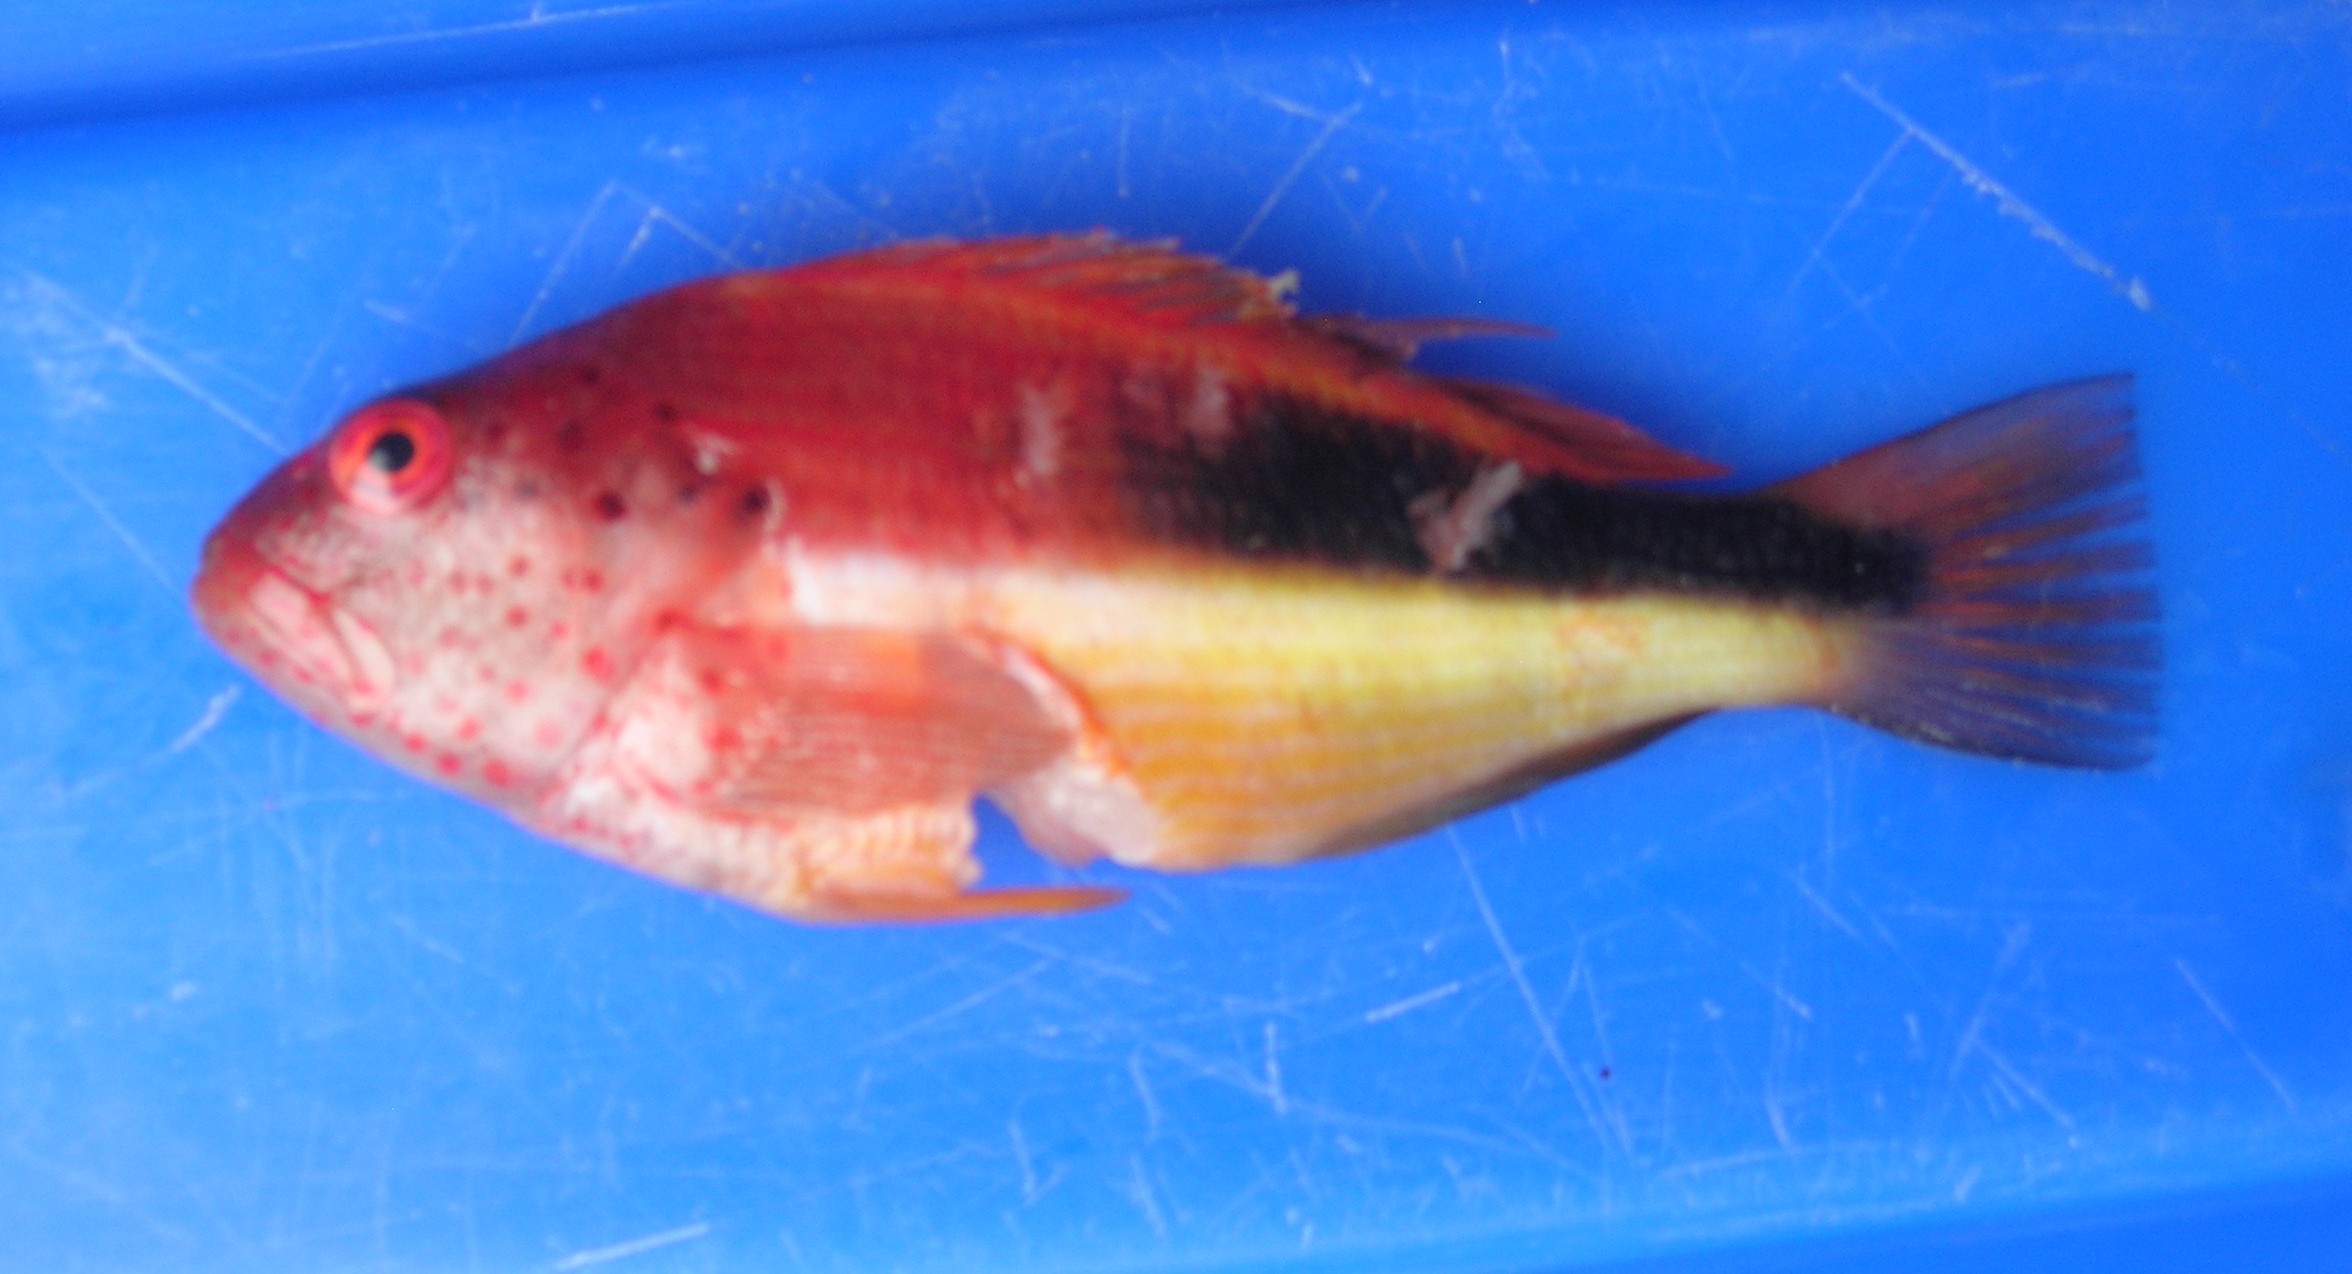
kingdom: Animalia
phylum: Chordata
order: Perciformes
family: Cirrhitidae
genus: Paracirrhites
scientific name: Paracirrhites forsteri
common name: Freckled hawkfish
